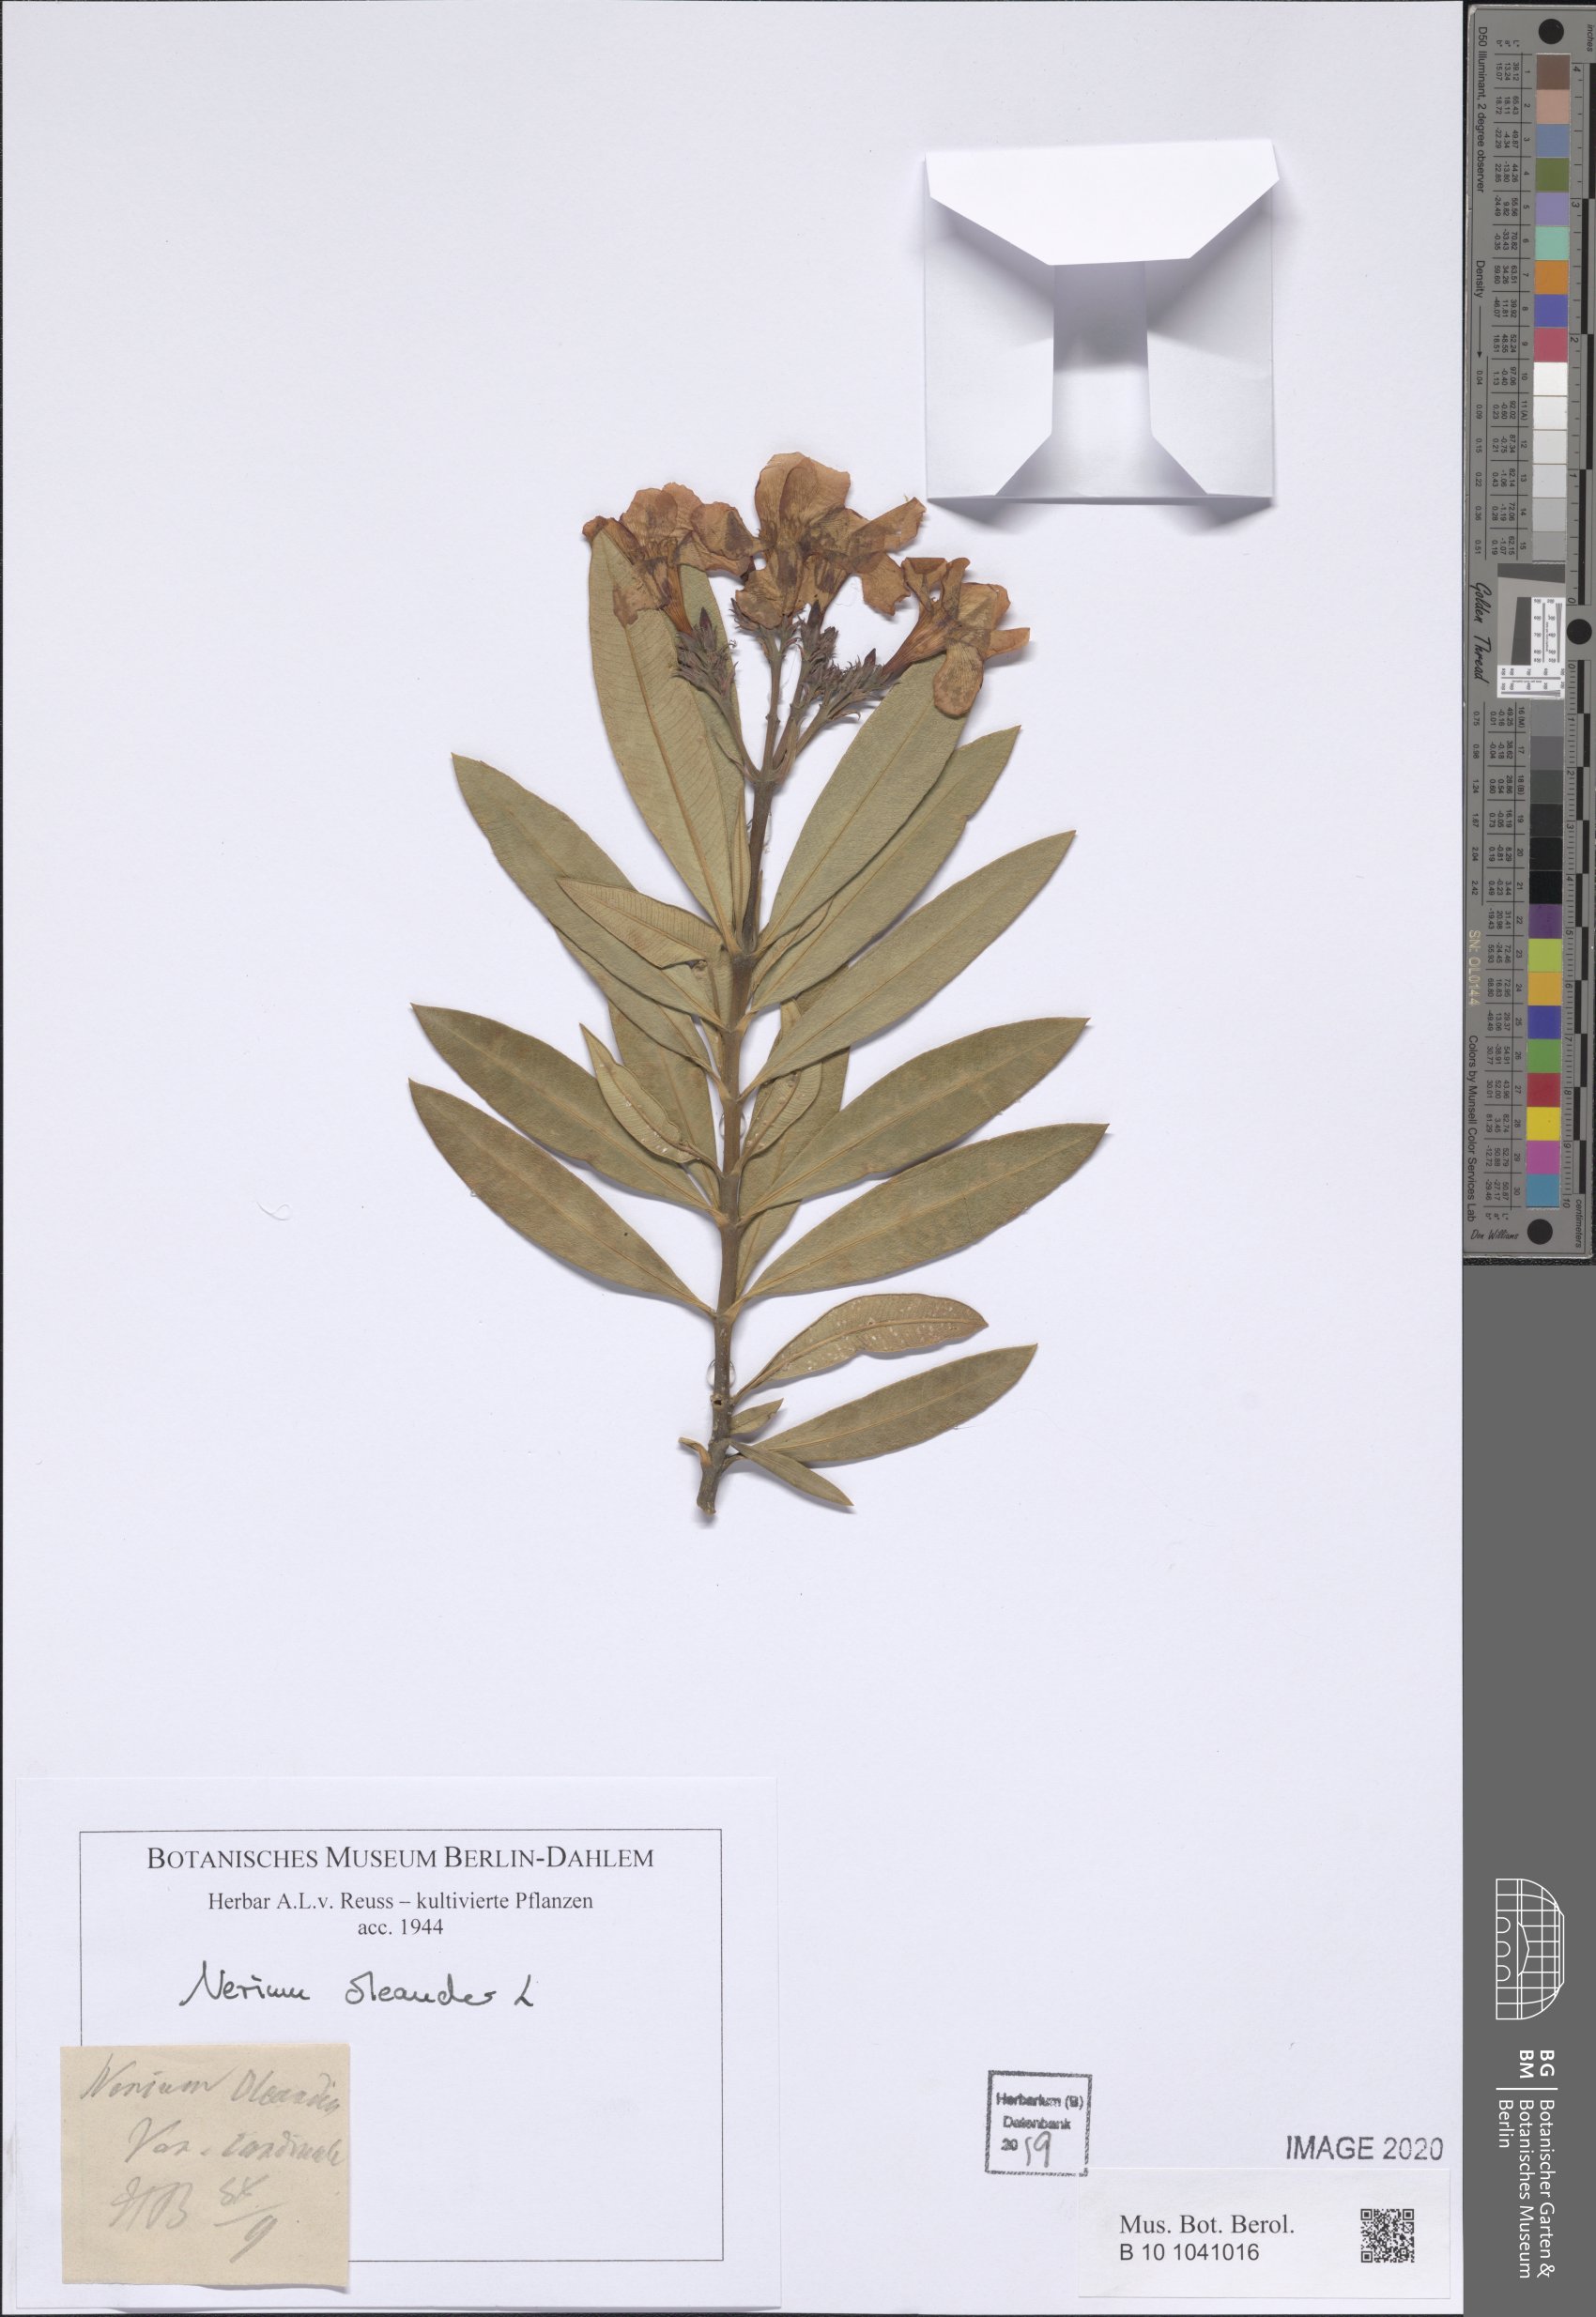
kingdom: Plantae
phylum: Tracheophyta
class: Magnoliopsida
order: Gentianales
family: Apocynaceae
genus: Nerium
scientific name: Nerium oleander
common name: Oleander
